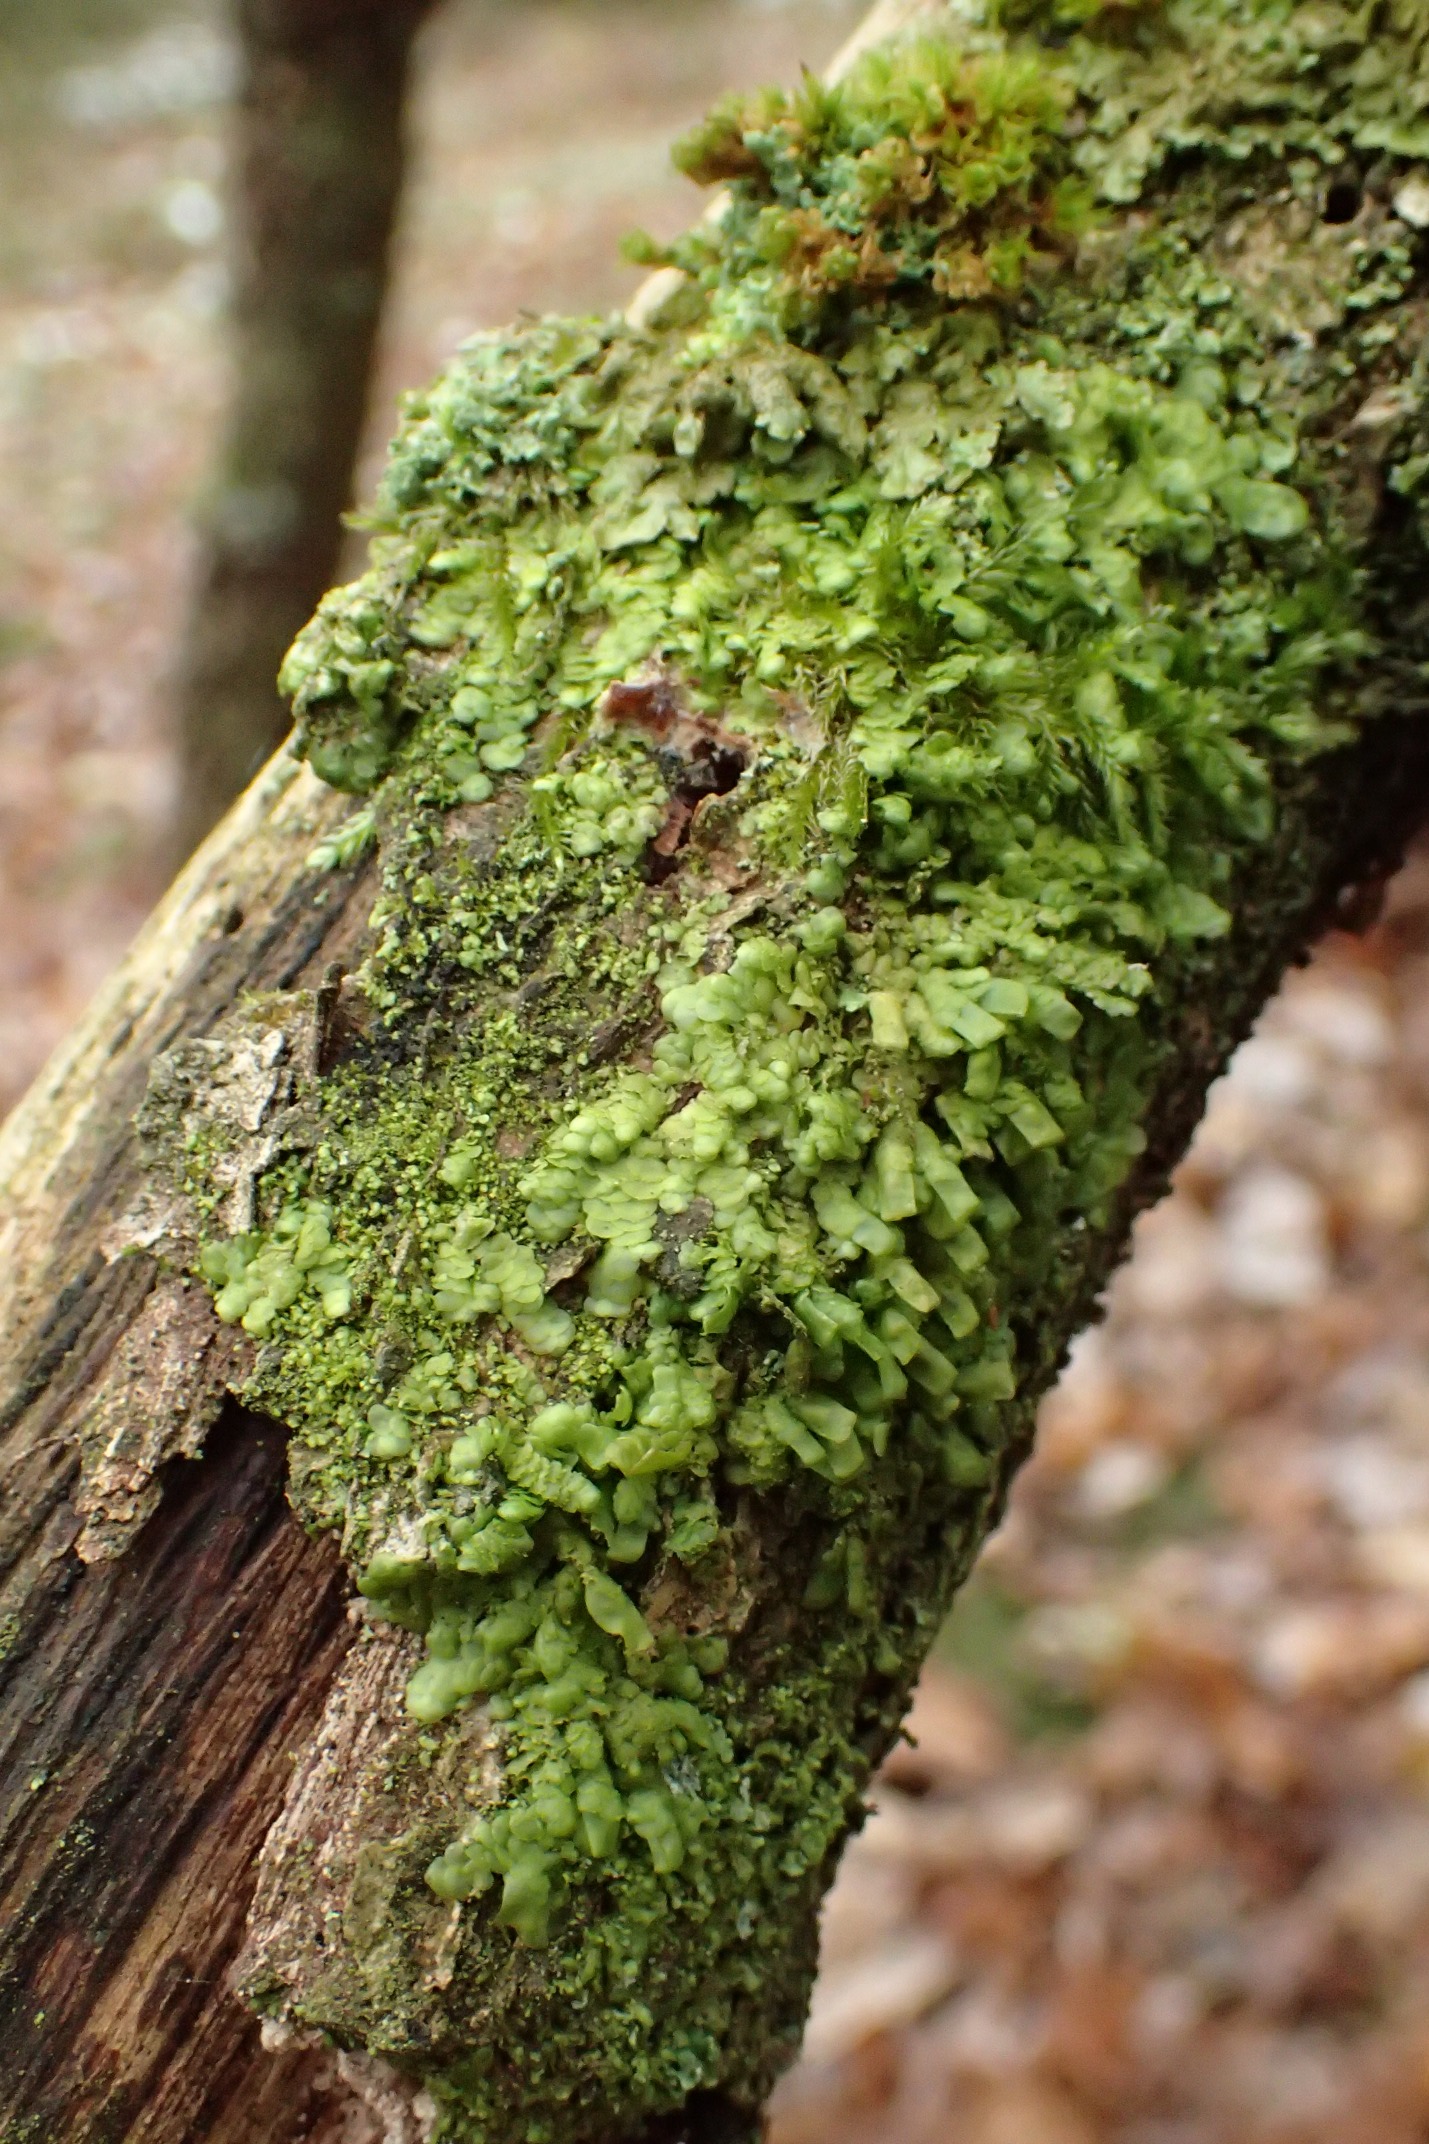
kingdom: Plantae
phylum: Marchantiophyta
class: Jungermanniopsida
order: Porellales
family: Radulaceae
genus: Radula
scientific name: Radula complanata
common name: Almindelig spartelmos
